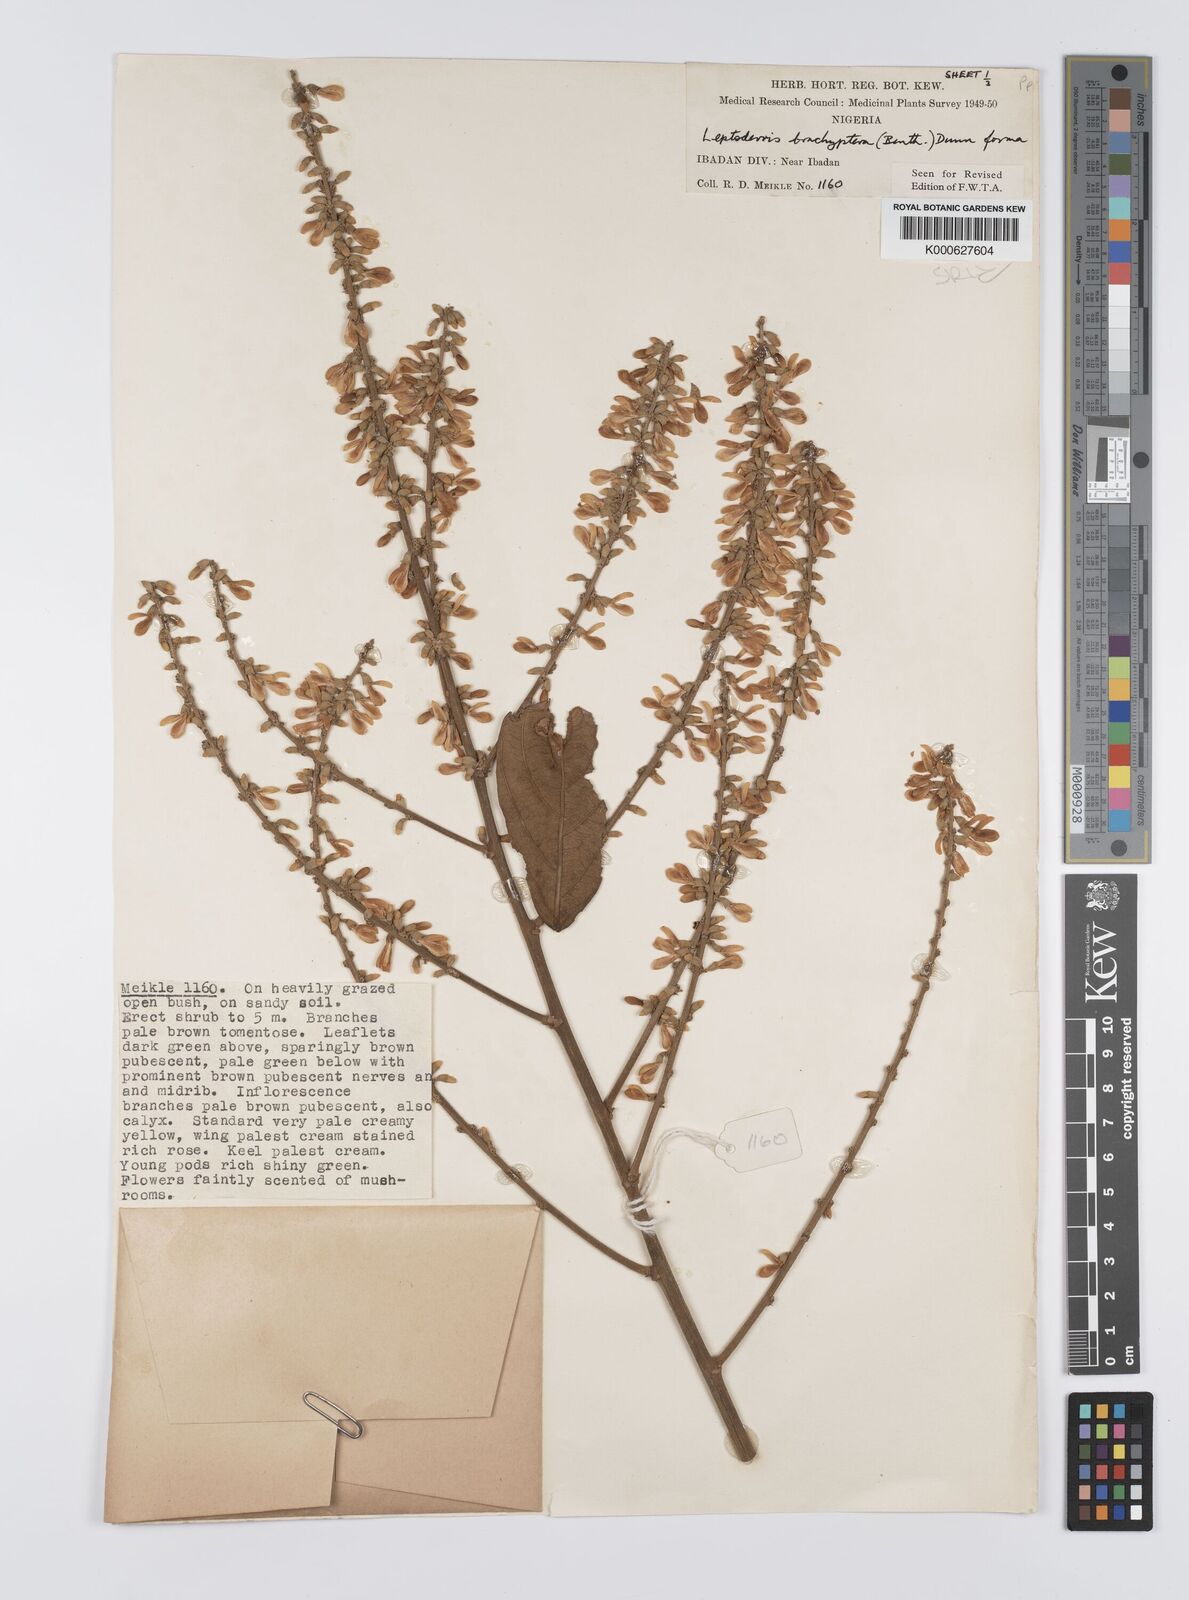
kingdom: Plantae
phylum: Tracheophyta
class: Magnoliopsida
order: Fabales
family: Fabaceae
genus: Leptoderris
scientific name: Leptoderris brachyptera
